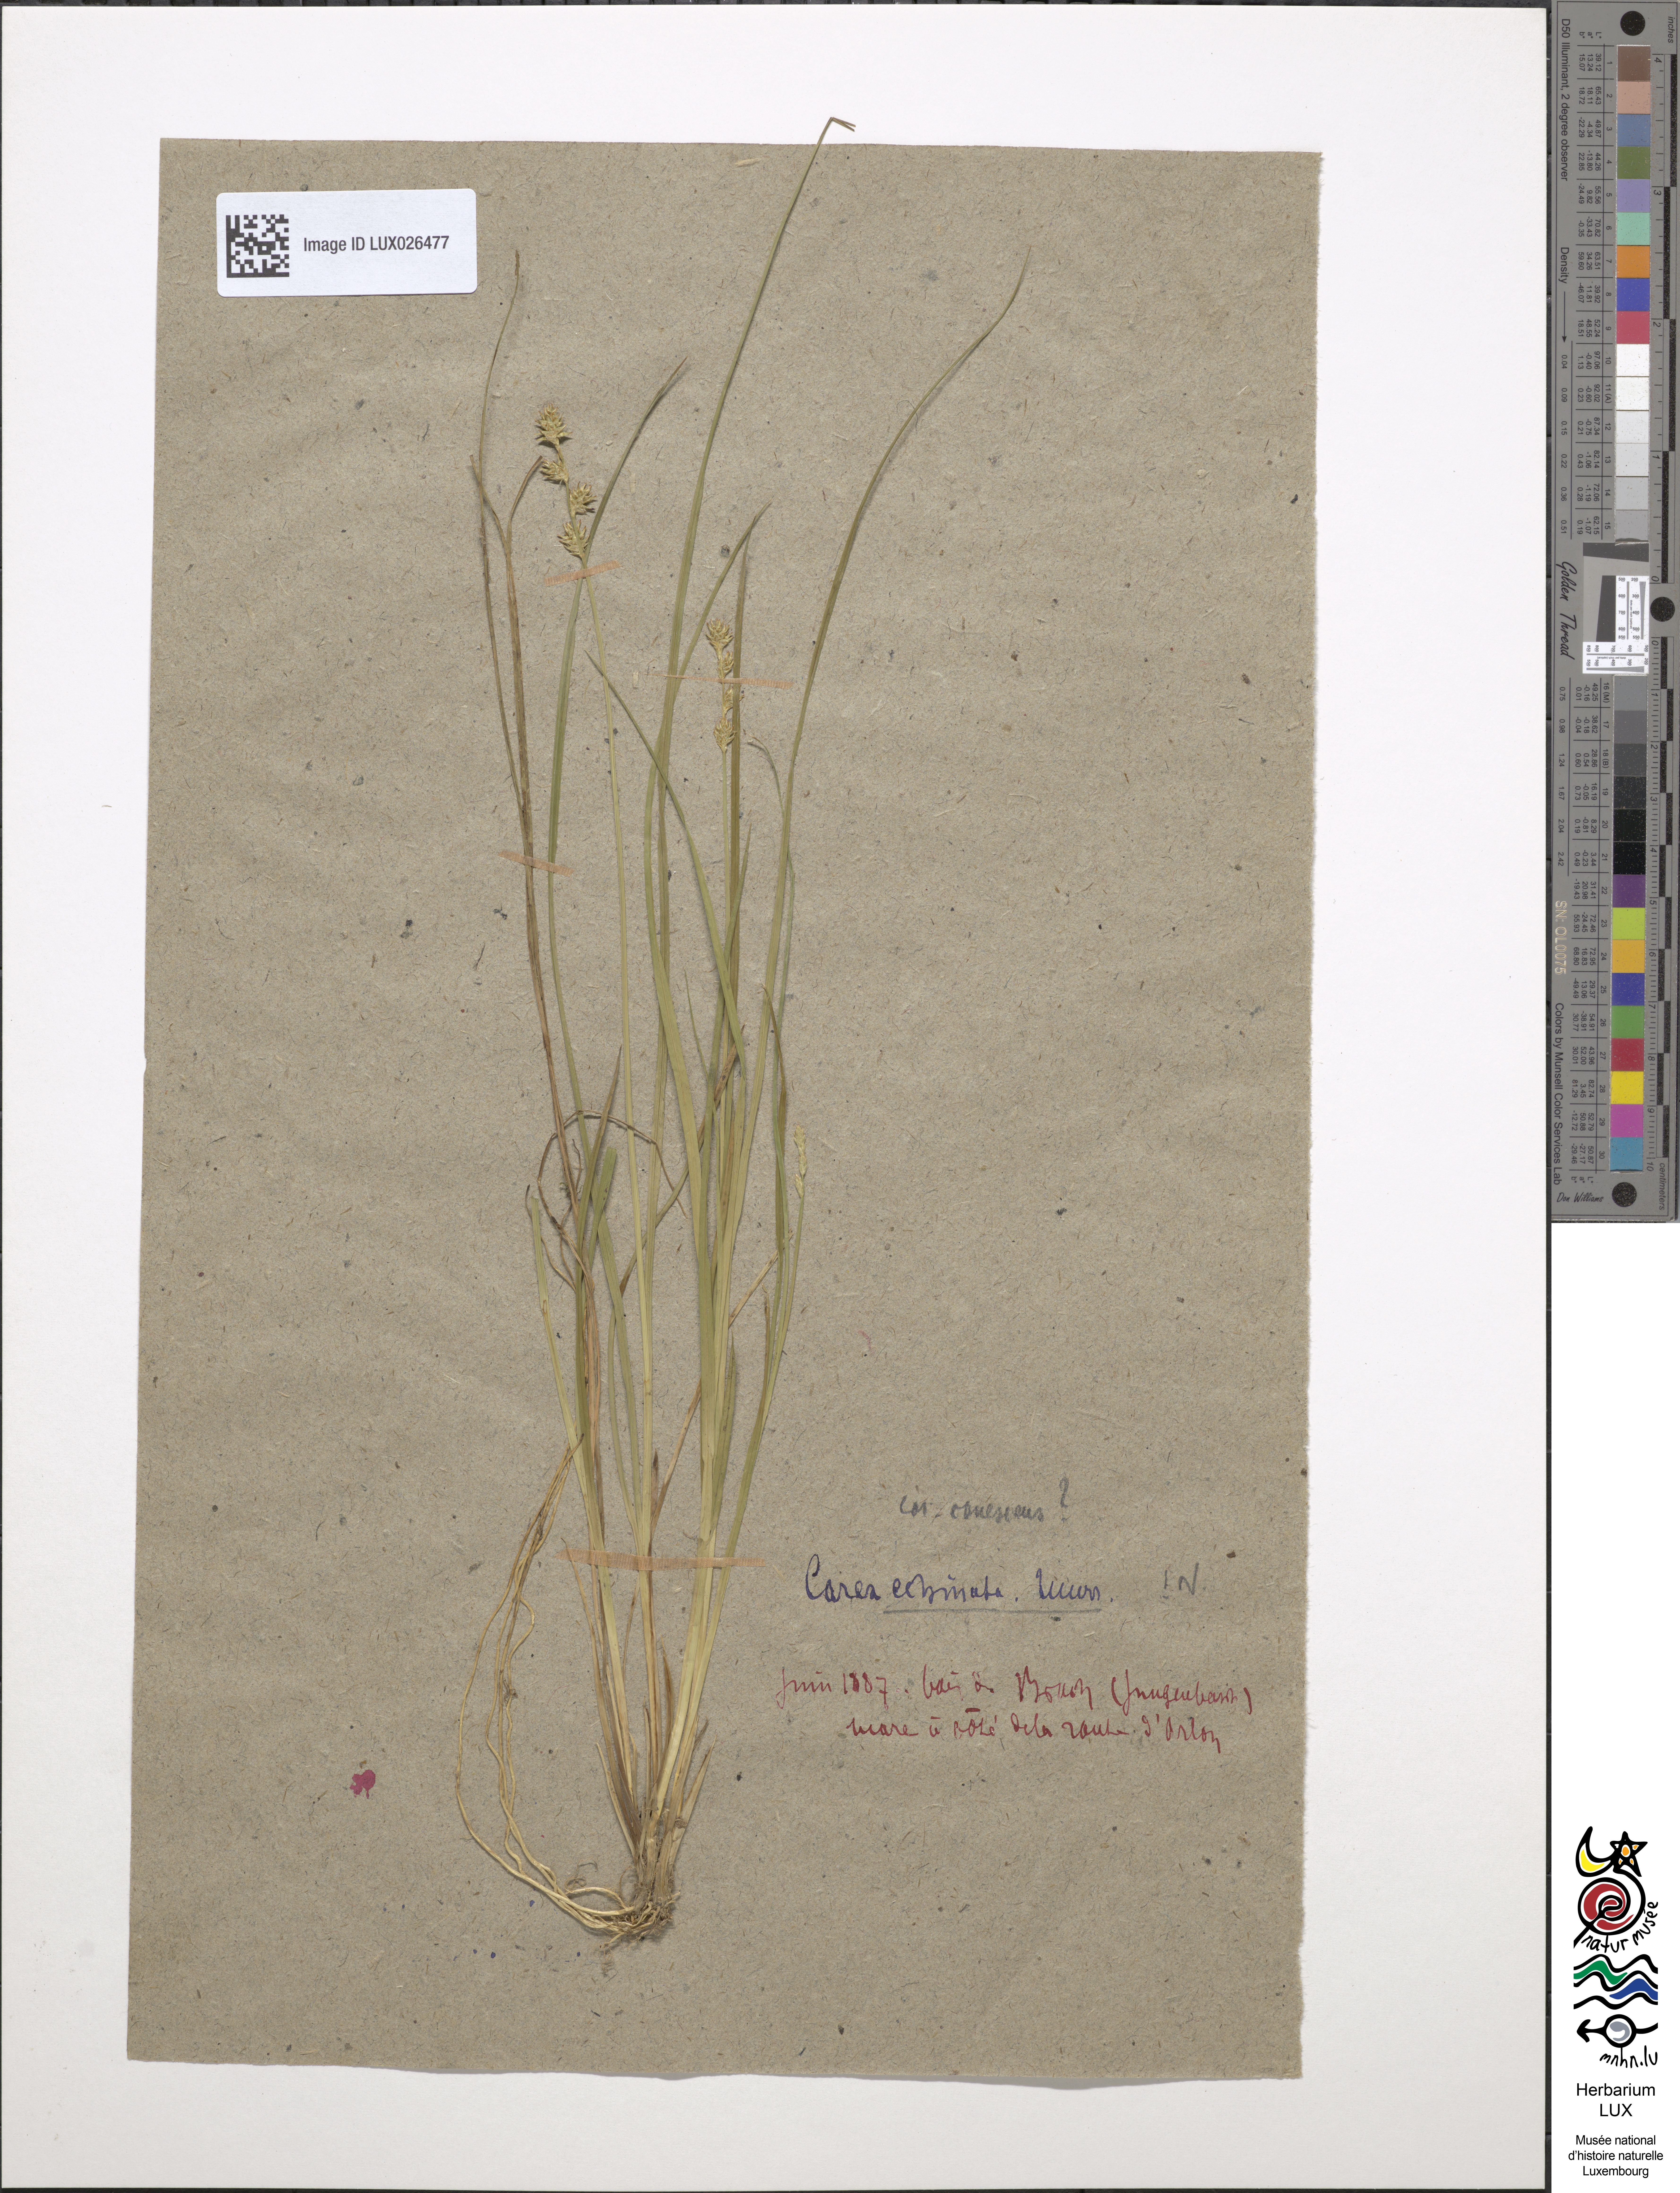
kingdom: Plantae
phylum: Tracheophyta
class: Liliopsida
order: Poales
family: Cyperaceae
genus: Carex
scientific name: Carex echinata
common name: Star sedge
